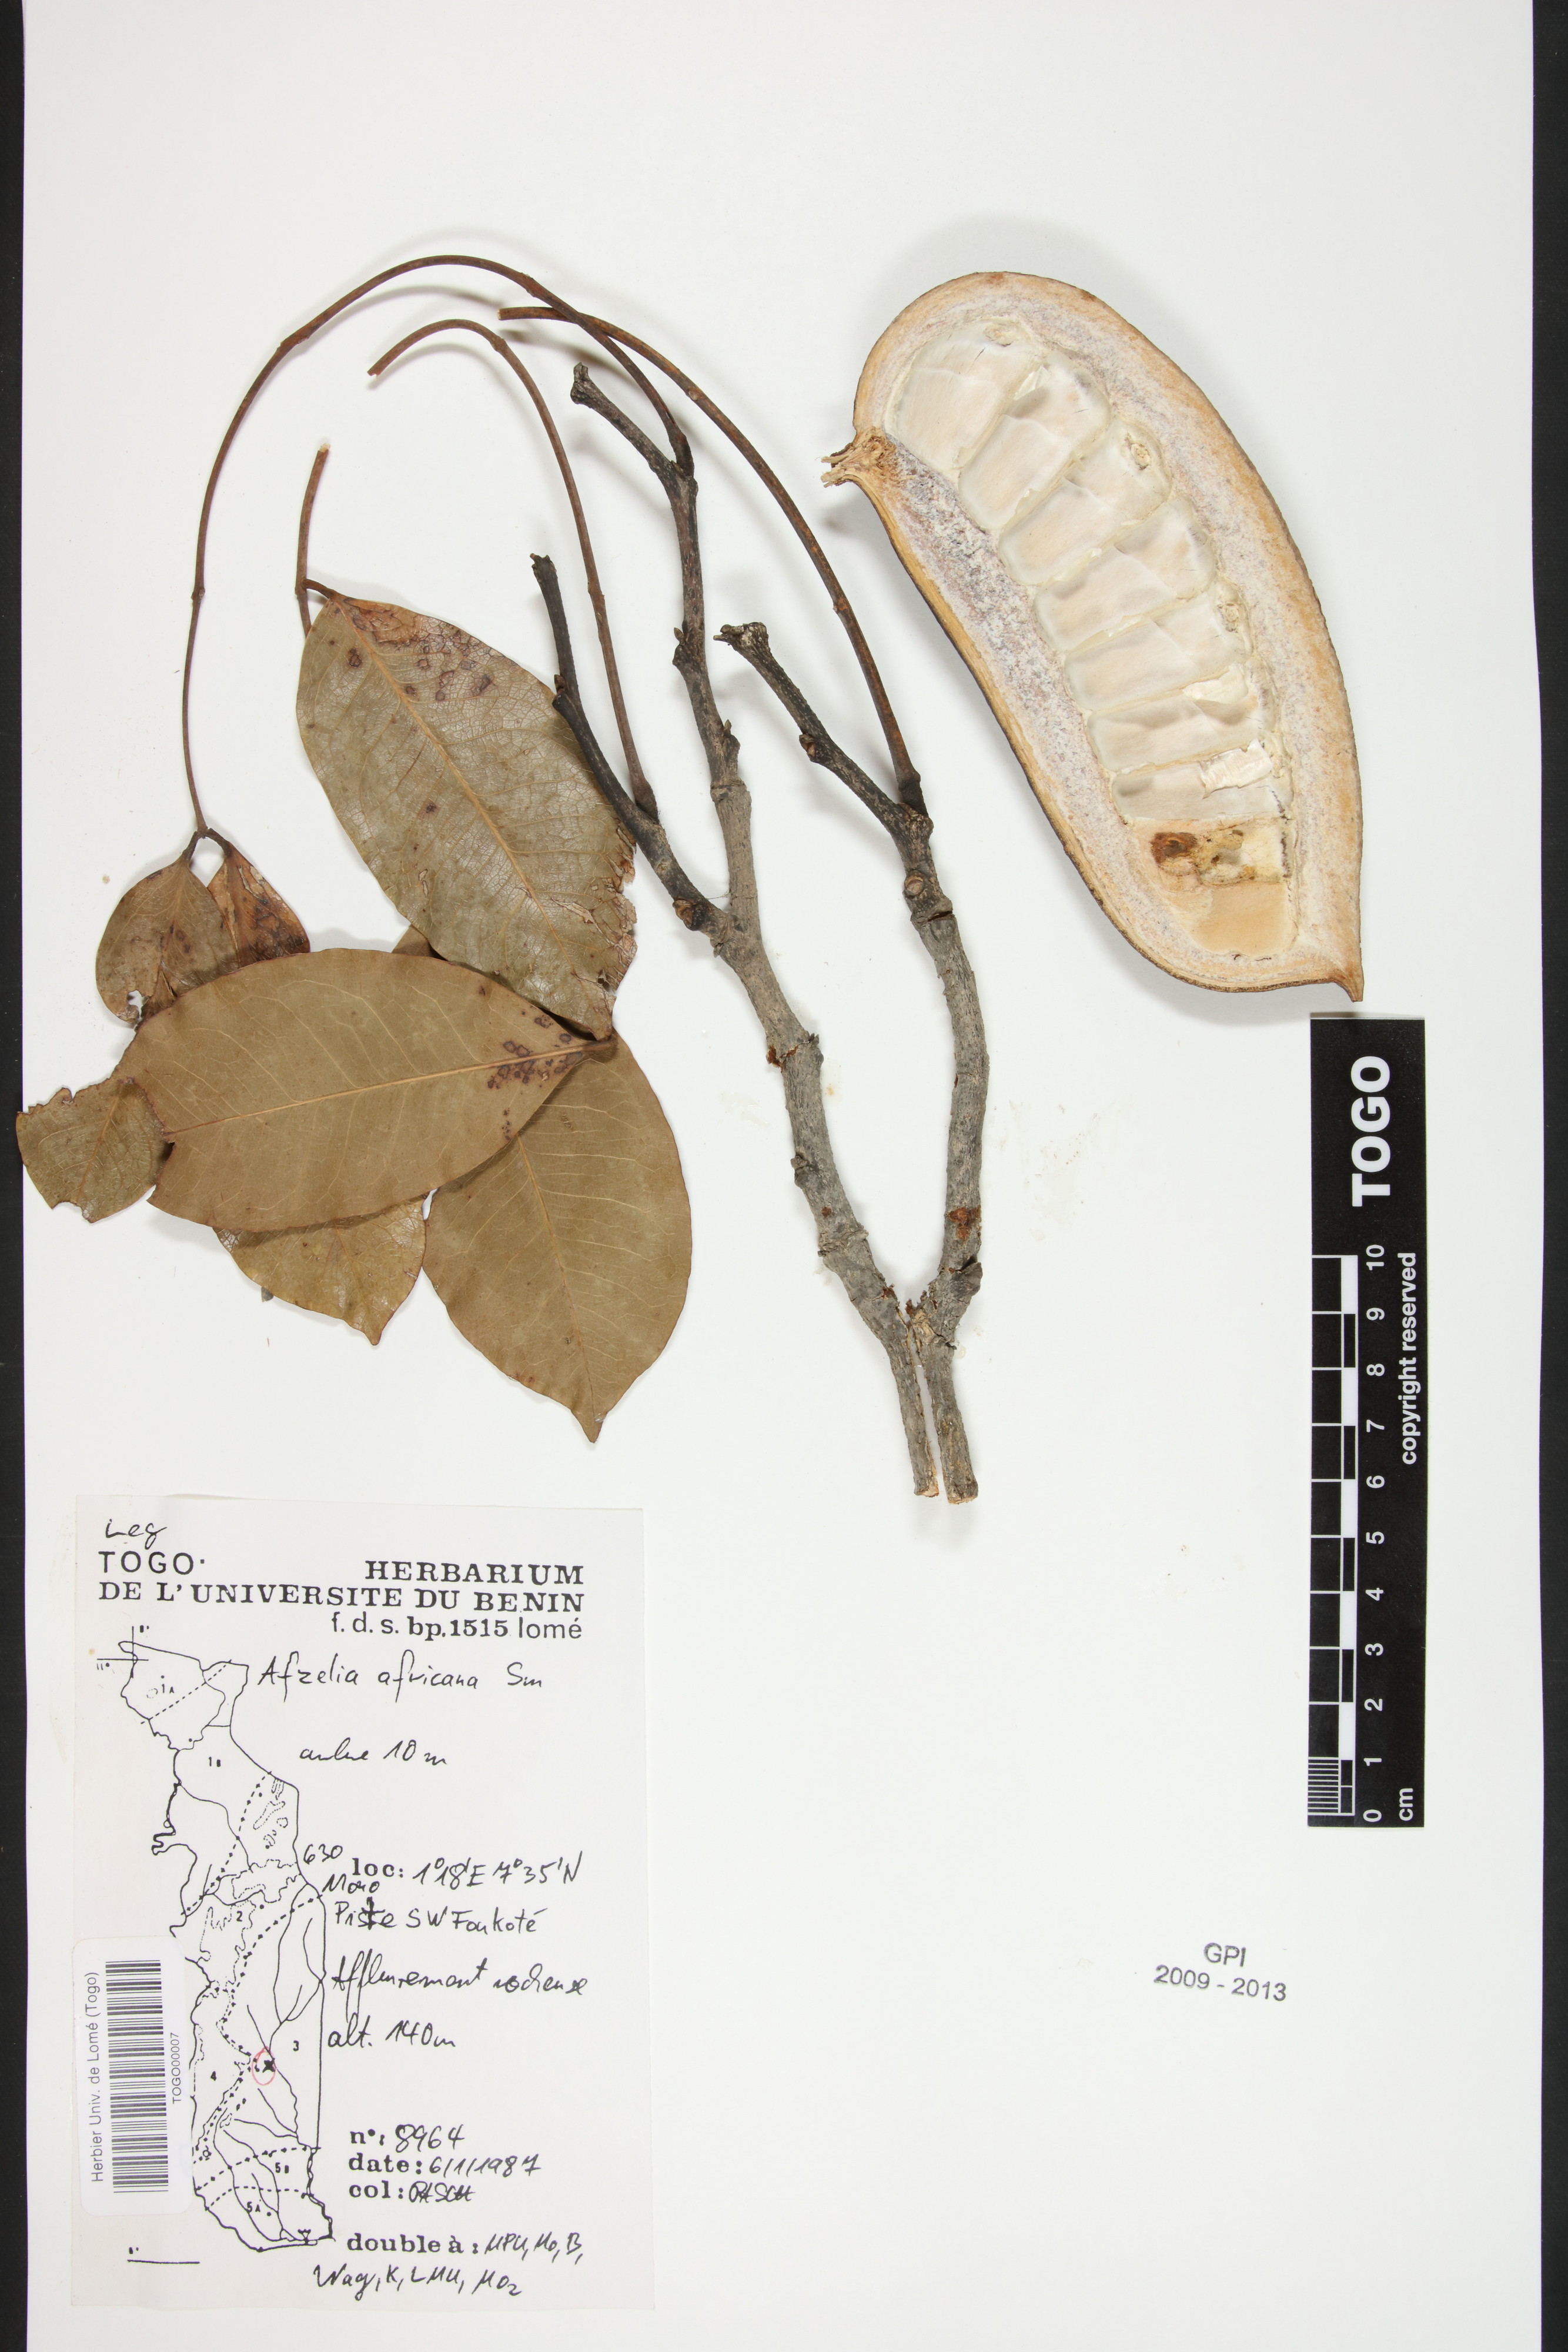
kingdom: Plantae
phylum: Tracheophyta
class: Magnoliopsida
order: Fabales
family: Fabaceae
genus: Afzelia
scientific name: Afzelia africana
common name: African-mahogany
